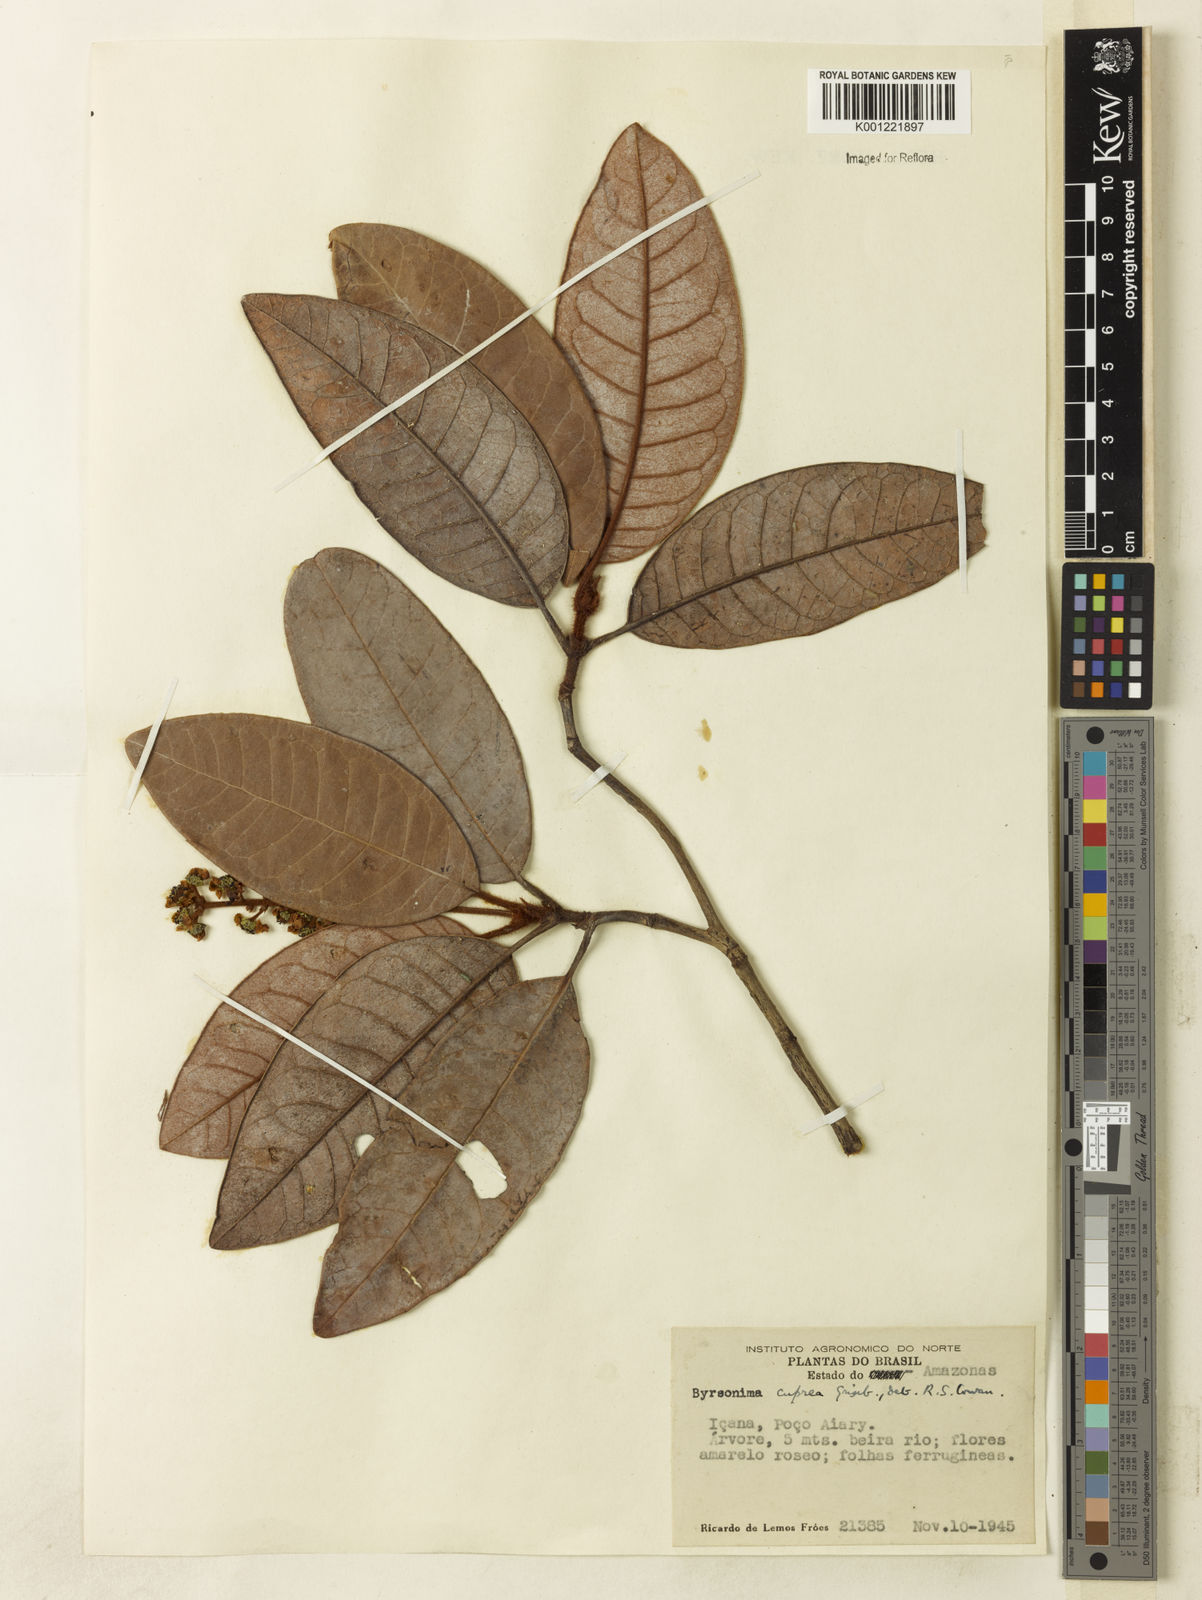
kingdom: Plantae
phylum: Tracheophyta
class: Magnoliopsida
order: Malpighiales
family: Malpighiaceae
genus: Byrsonima
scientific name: Byrsonima cuprea
